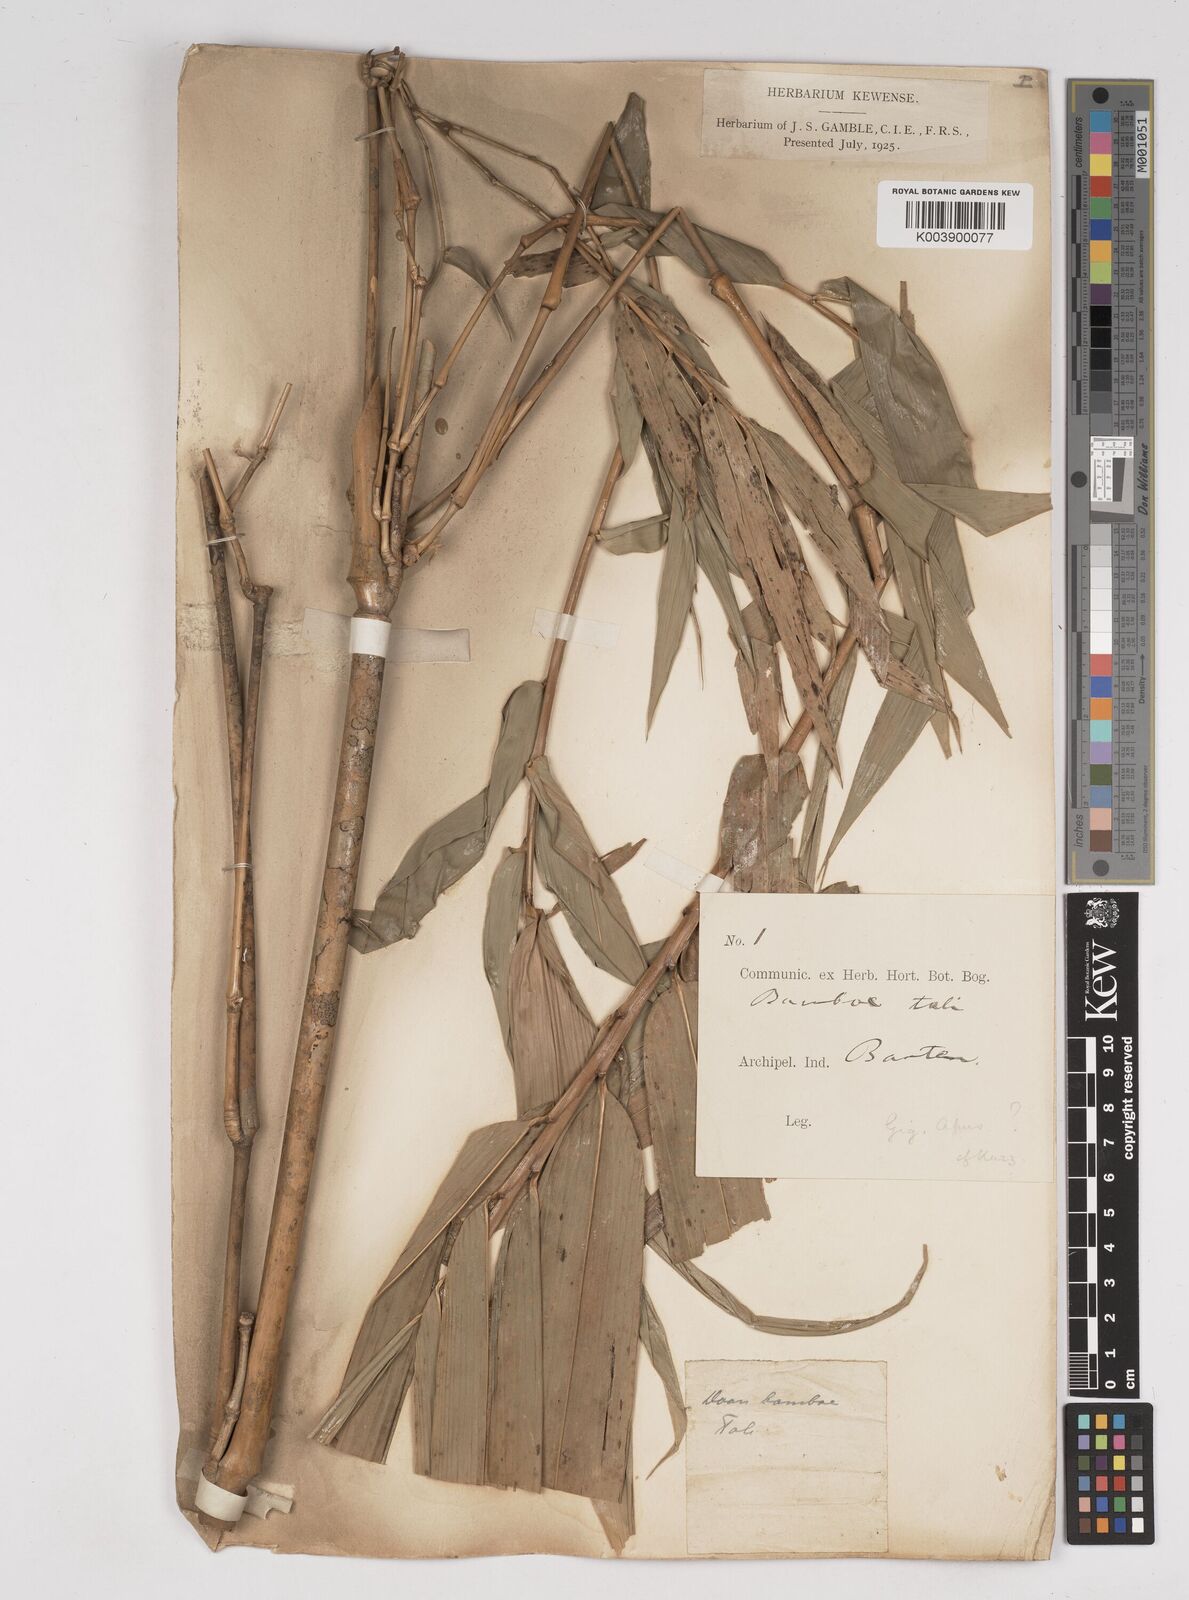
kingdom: Plantae
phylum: Tracheophyta
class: Liliopsida
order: Poales
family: Poaceae
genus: Gigantochloa
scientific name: Gigantochloa apus
